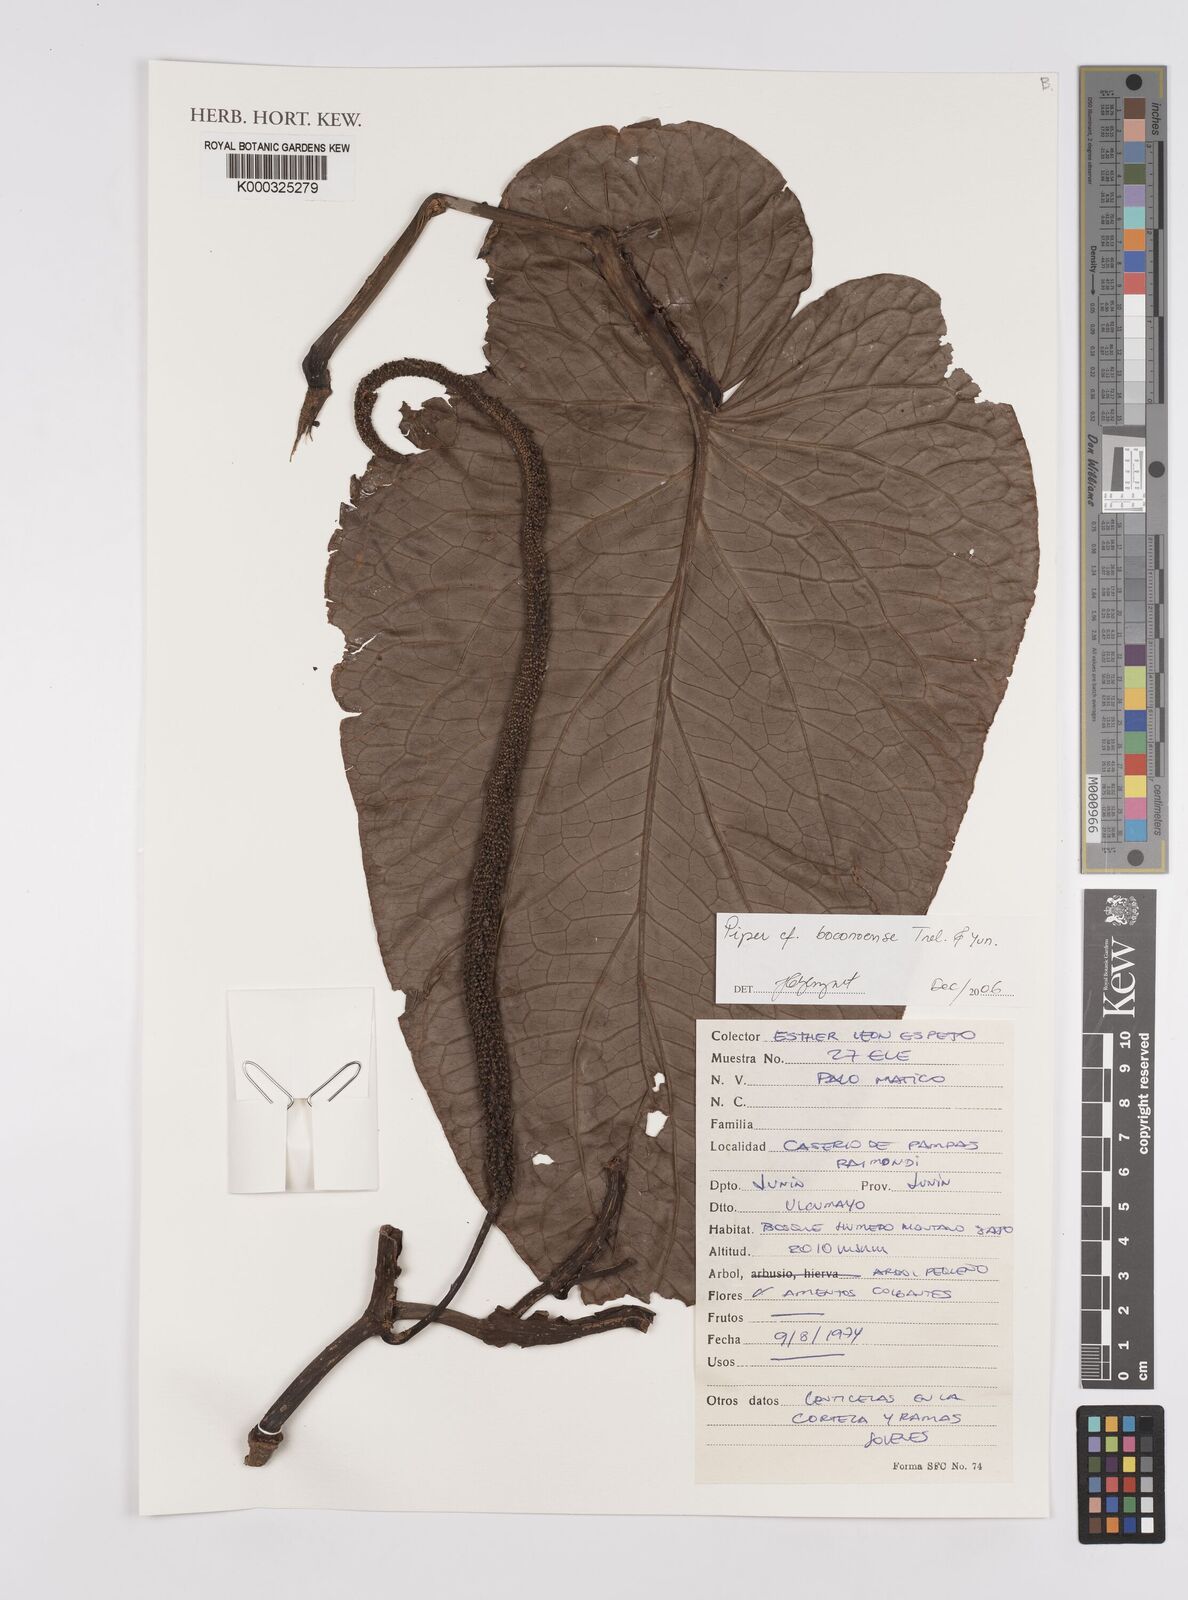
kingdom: Plantae
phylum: Tracheophyta
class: Magnoliopsida
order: Piperales
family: Piperaceae
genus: Piper
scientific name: Piper longispicum
